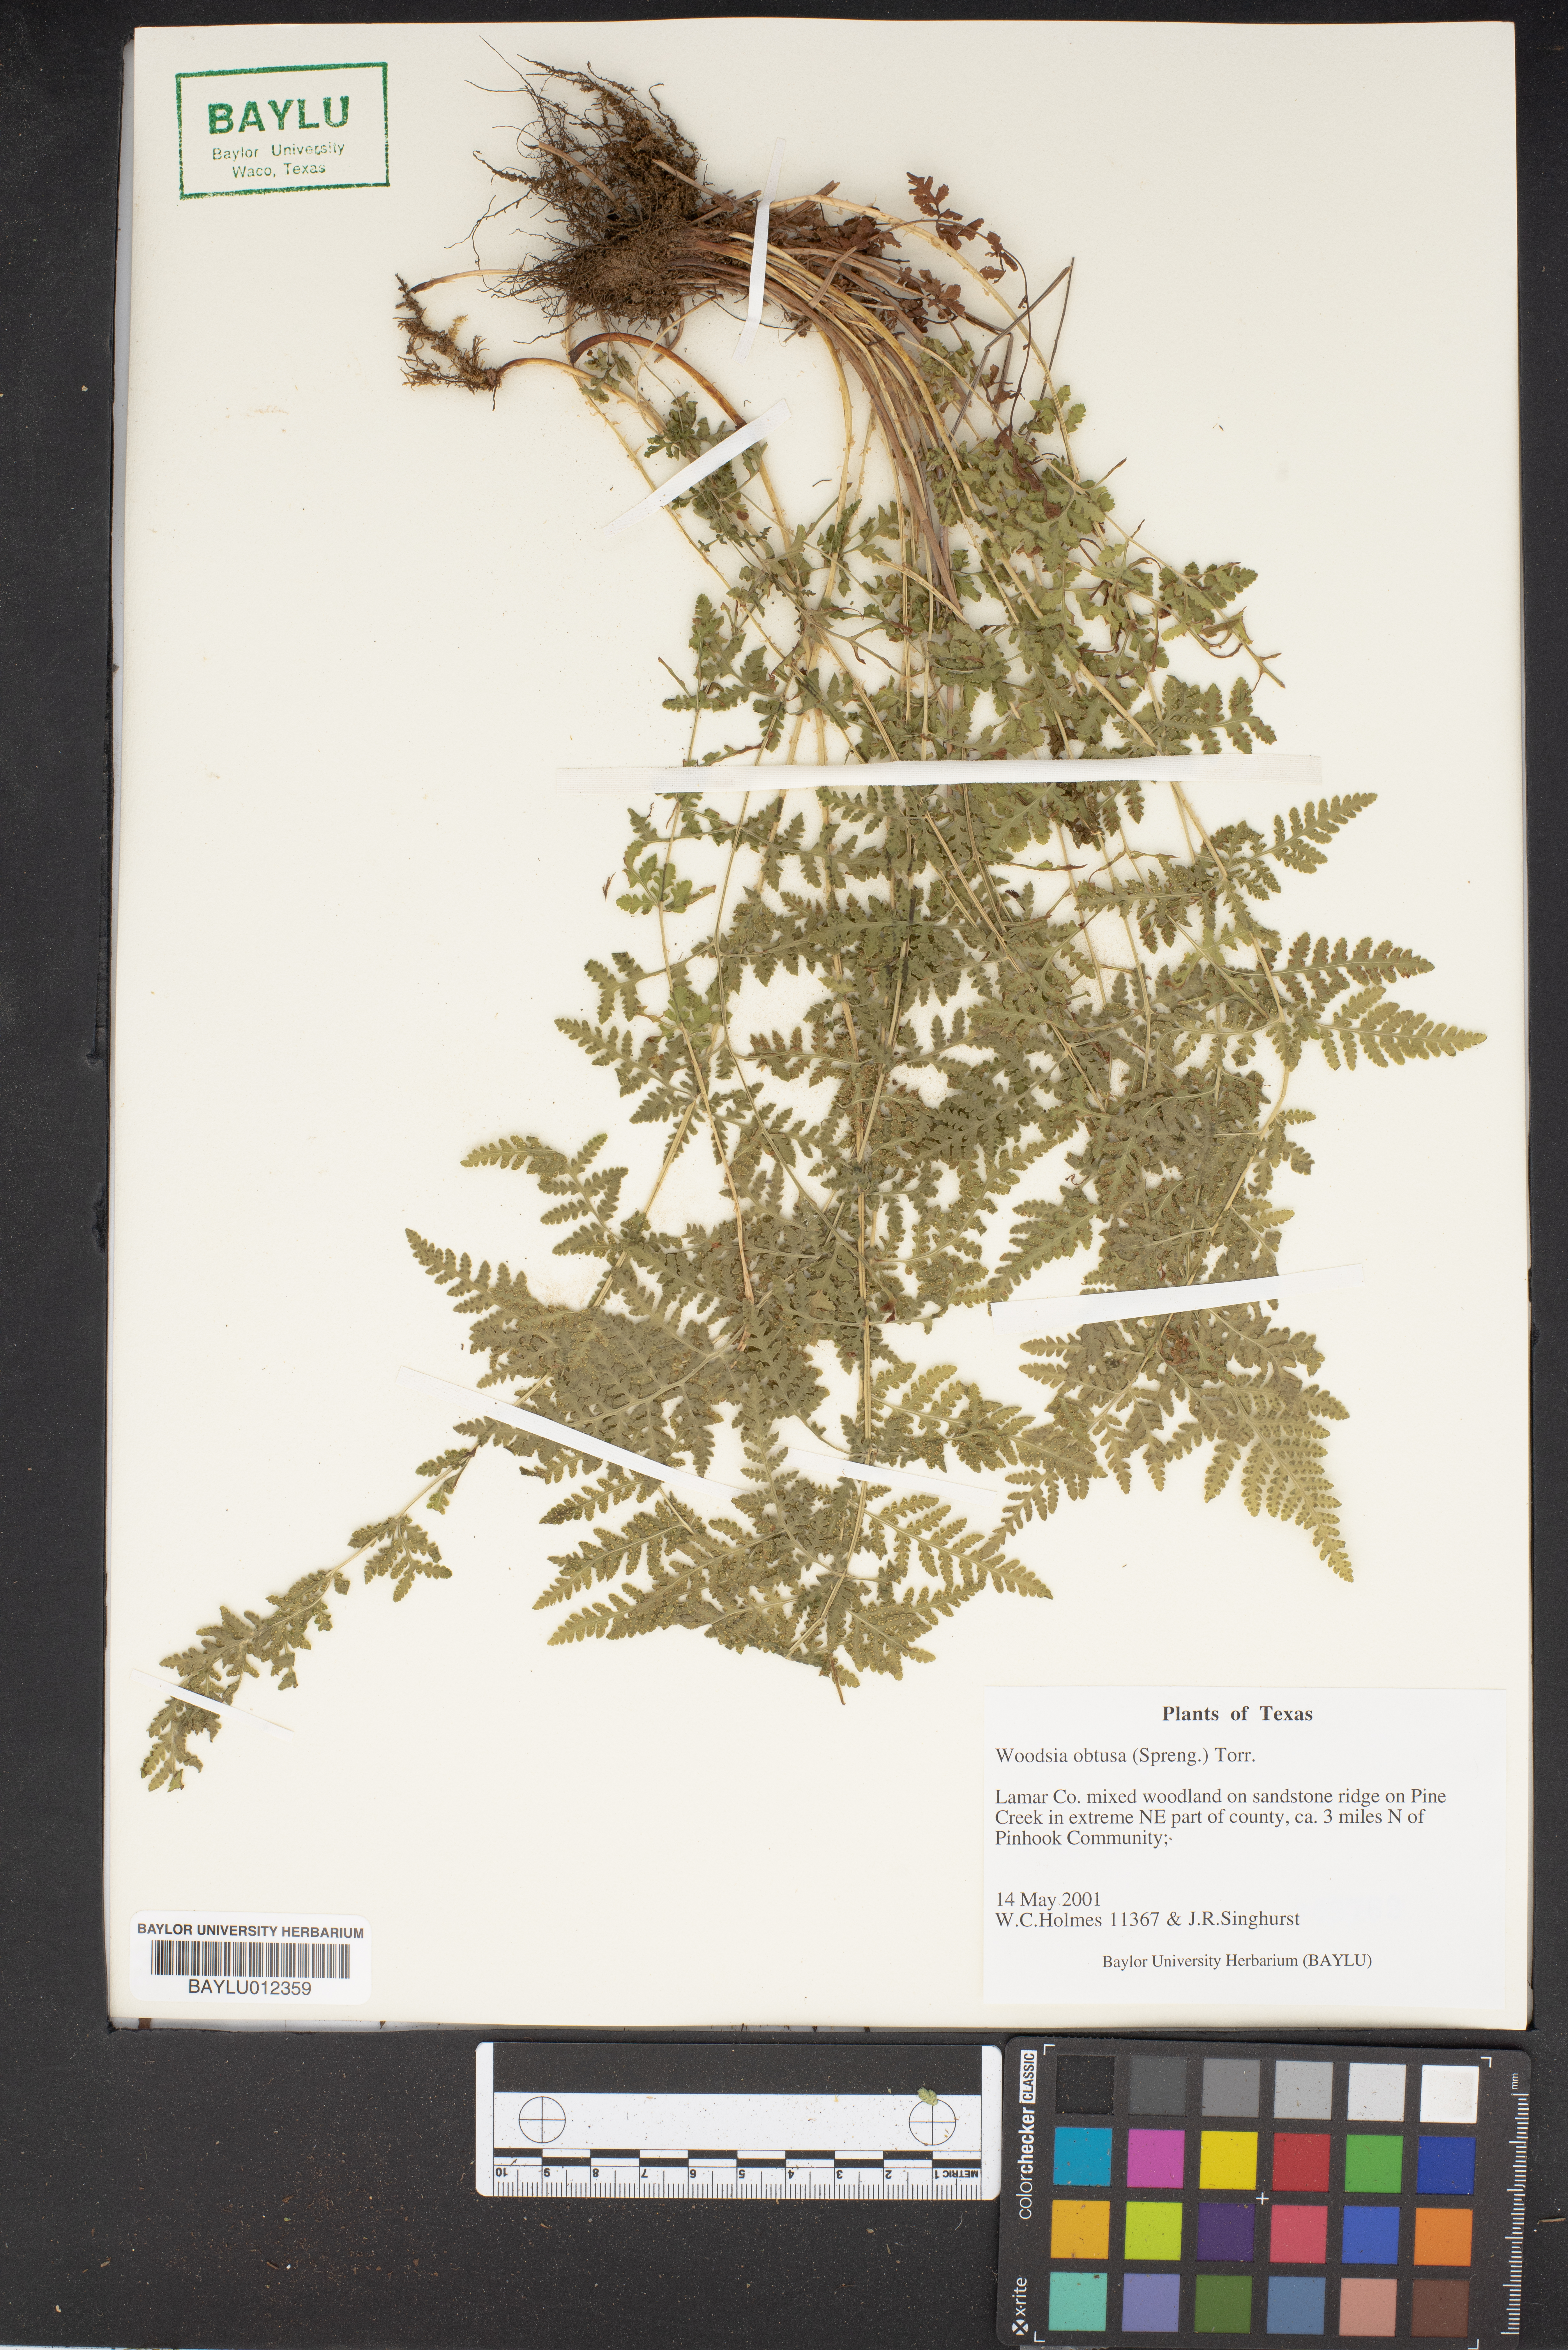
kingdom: Plantae
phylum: Tracheophyta
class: Polypodiopsida
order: Polypodiales
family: Woodsiaceae
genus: Physematium
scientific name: Physematium obtusum
